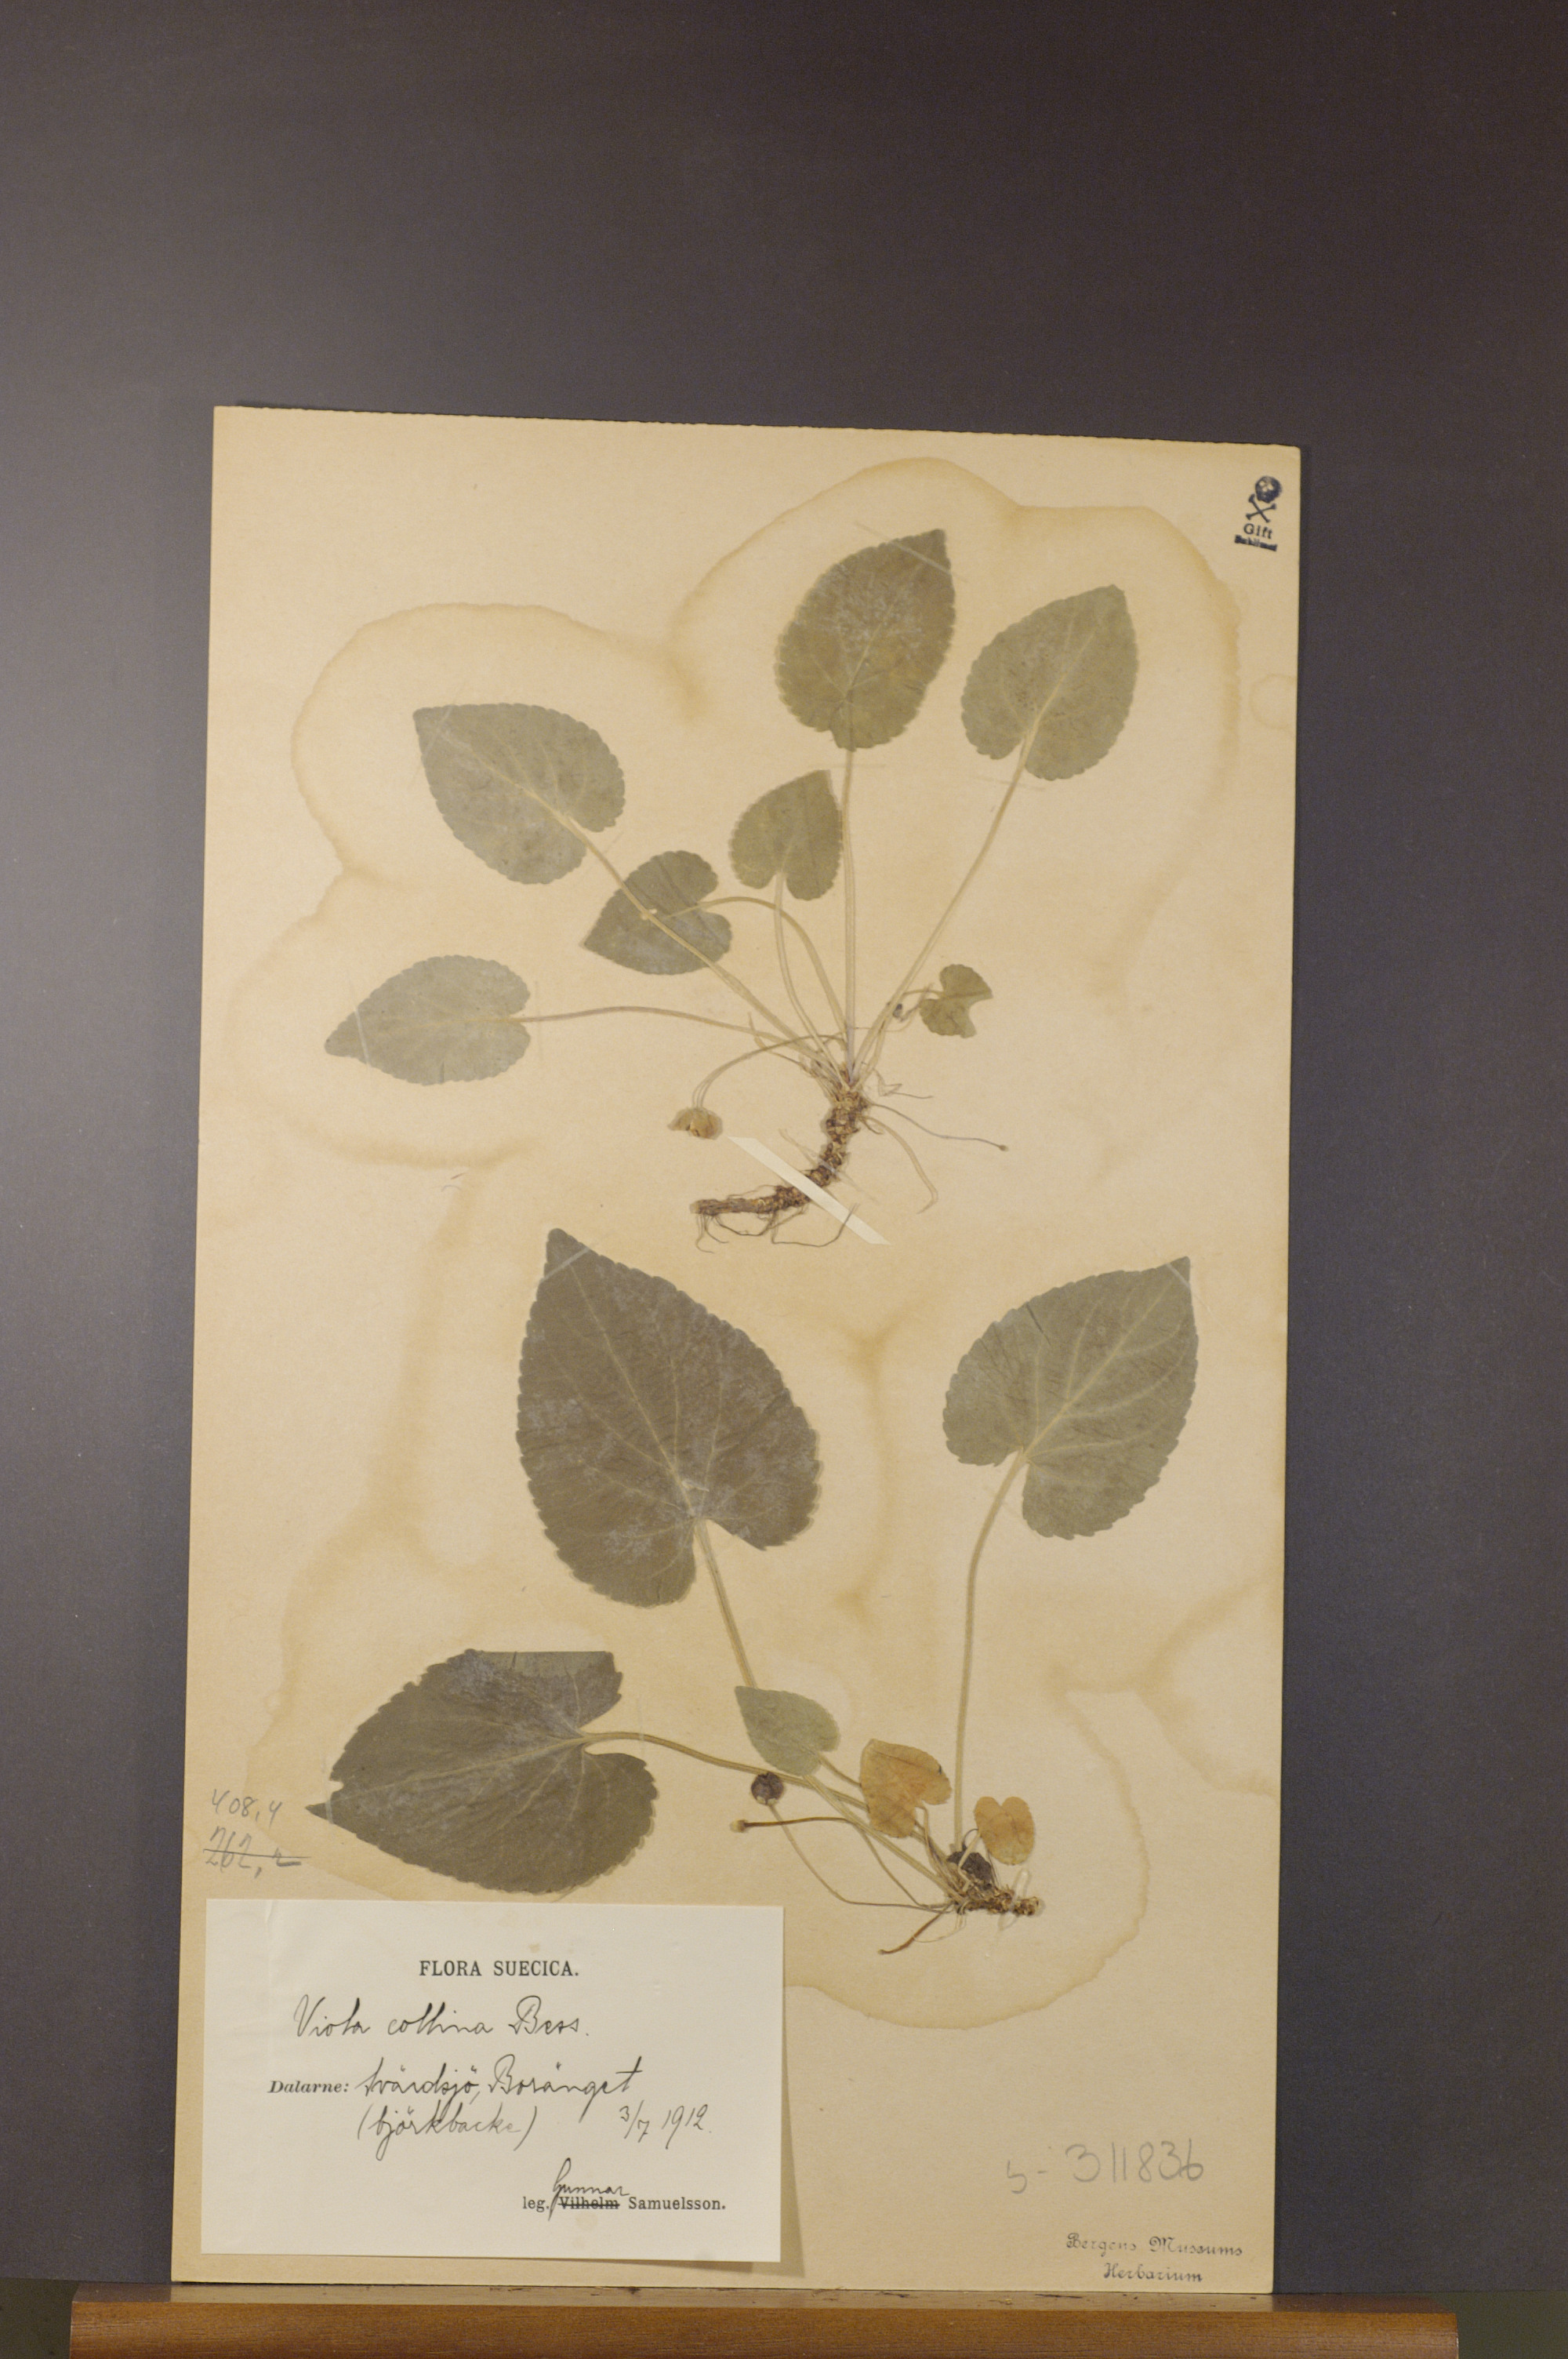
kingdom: Plantae
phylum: Tracheophyta
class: Magnoliopsida
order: Malpighiales
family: Violaceae
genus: Viola
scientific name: Viola collina
